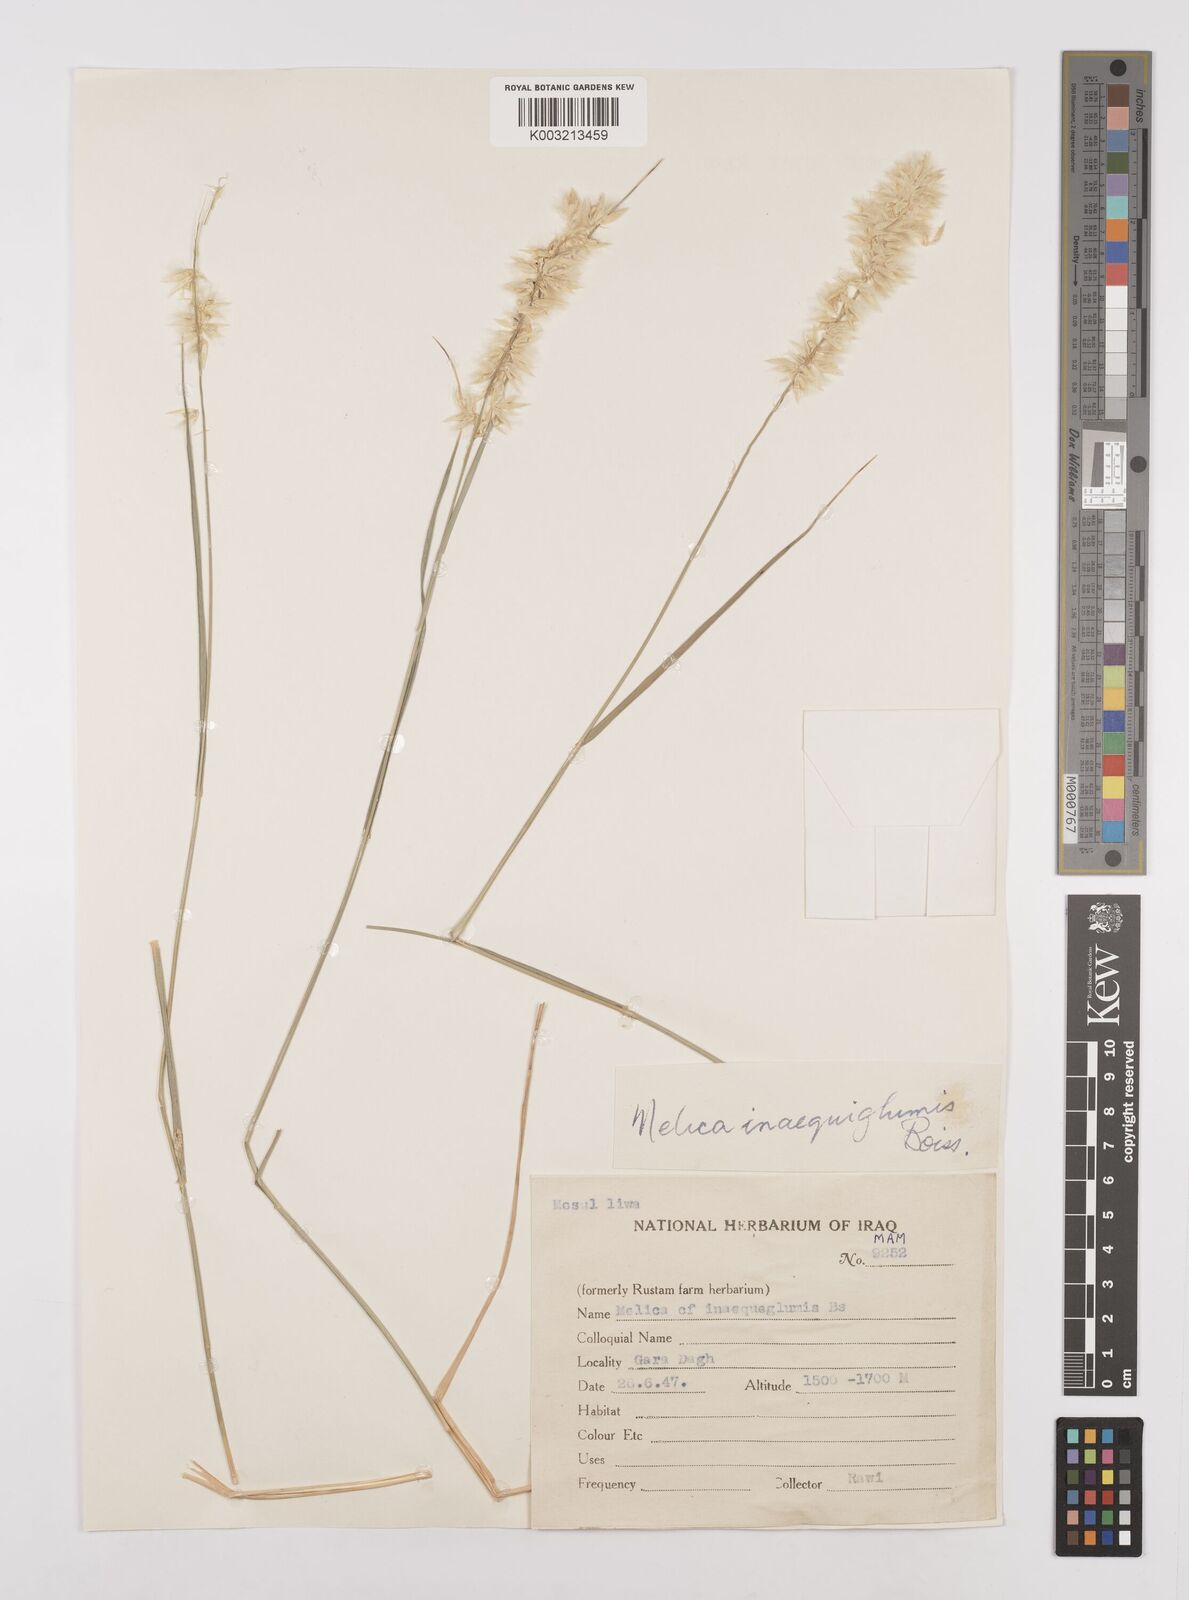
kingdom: Plantae
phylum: Tracheophyta
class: Liliopsida
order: Poales
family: Poaceae
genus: Melica
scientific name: Melica persica
